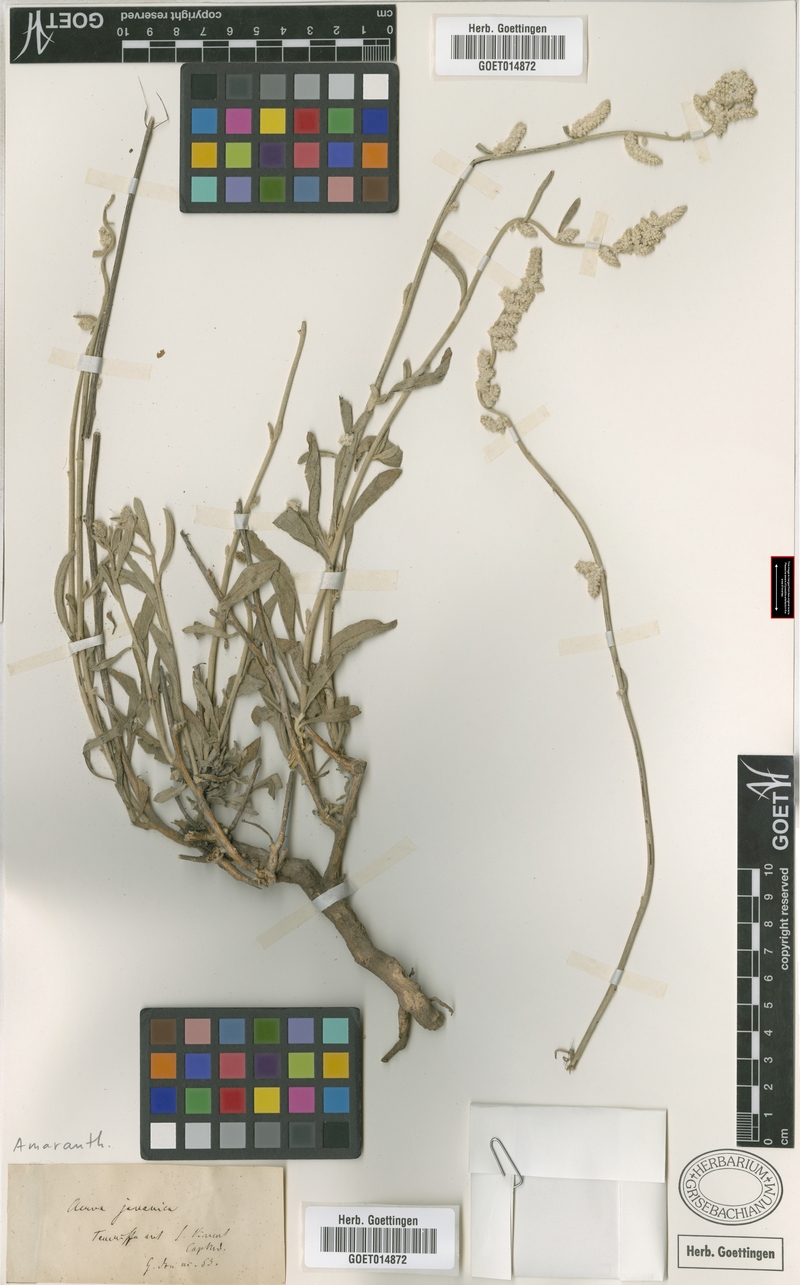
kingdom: Plantae
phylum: Tracheophyta
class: Magnoliopsida
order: Caryophyllales
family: Amaranthaceae
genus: Aerva
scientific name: Aerva javanica
